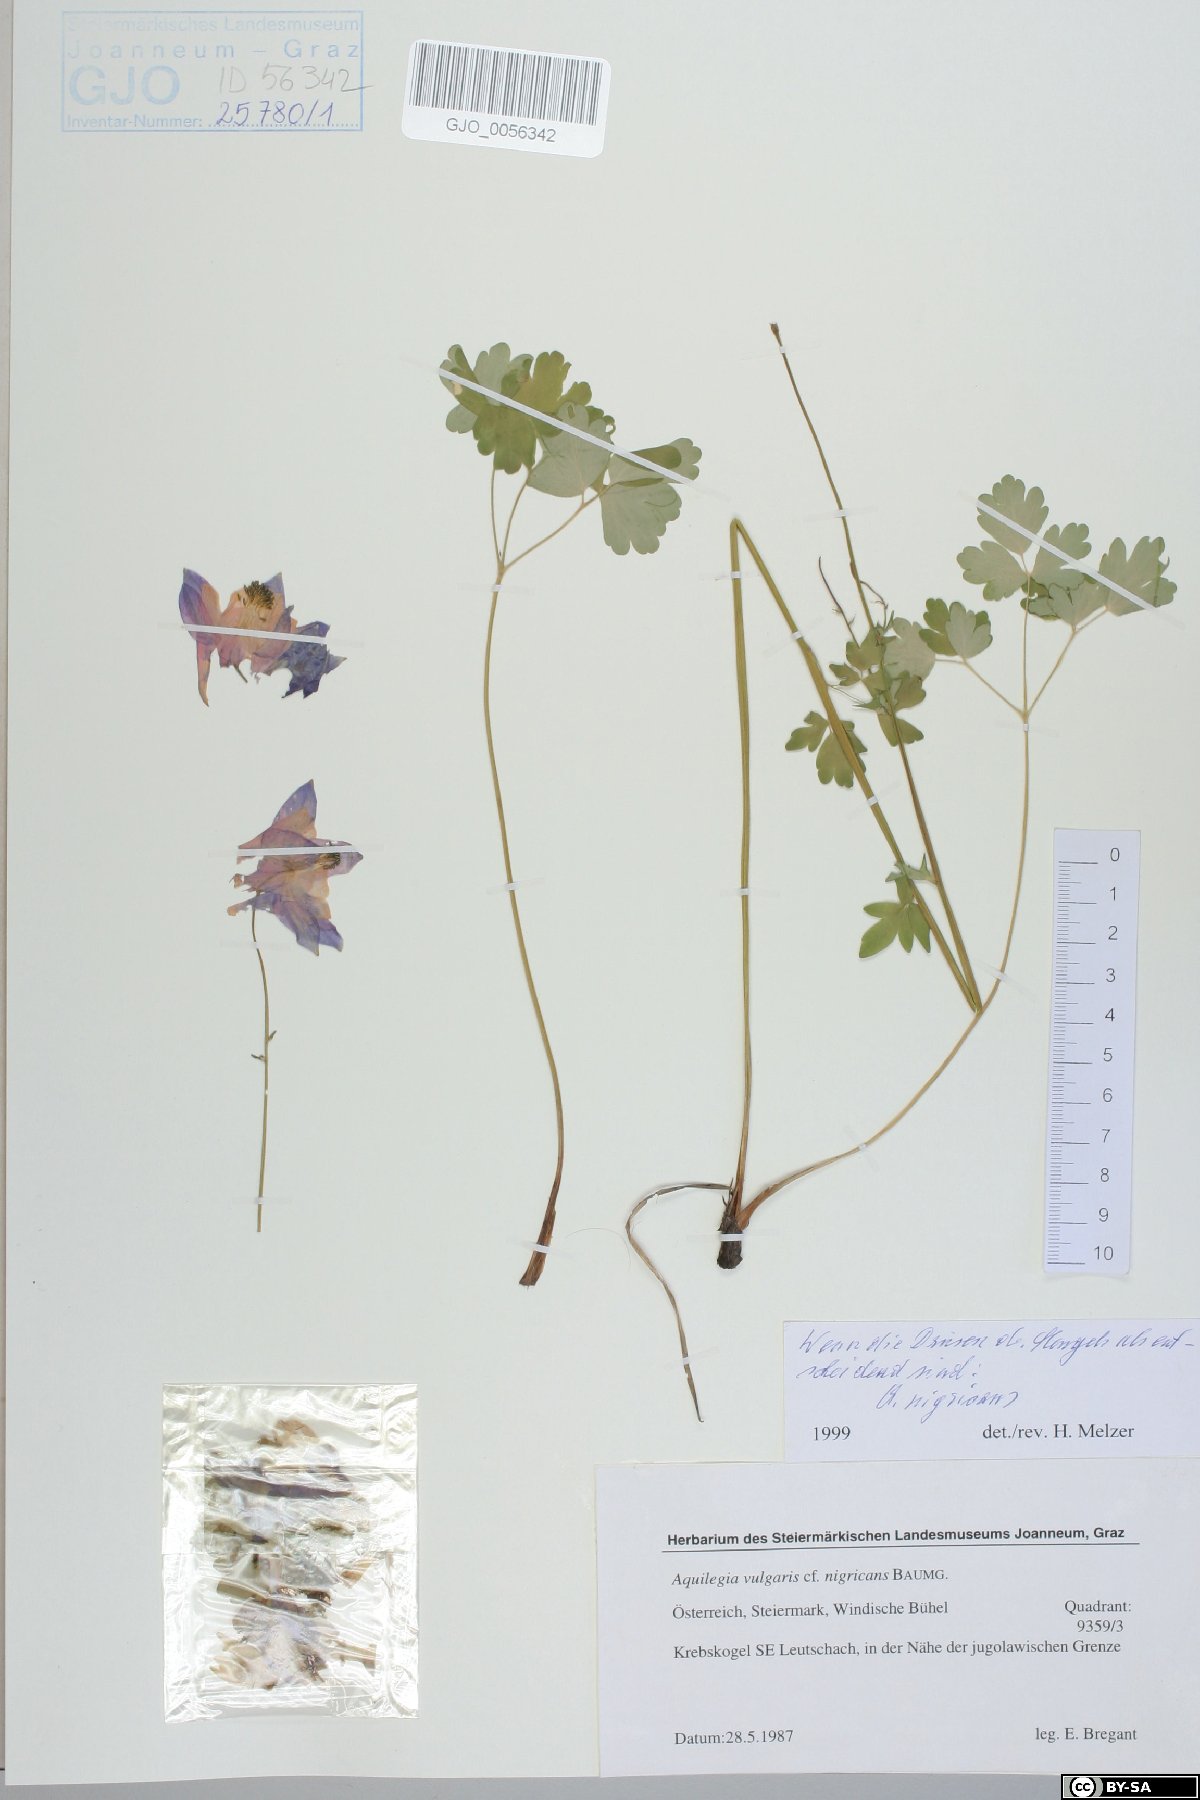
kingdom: Plantae
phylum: Tracheophyta
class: Magnoliopsida
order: Ranunculales
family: Ranunculaceae
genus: Aquilegia
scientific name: Aquilegia nigricans
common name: Bulgarian columbine
